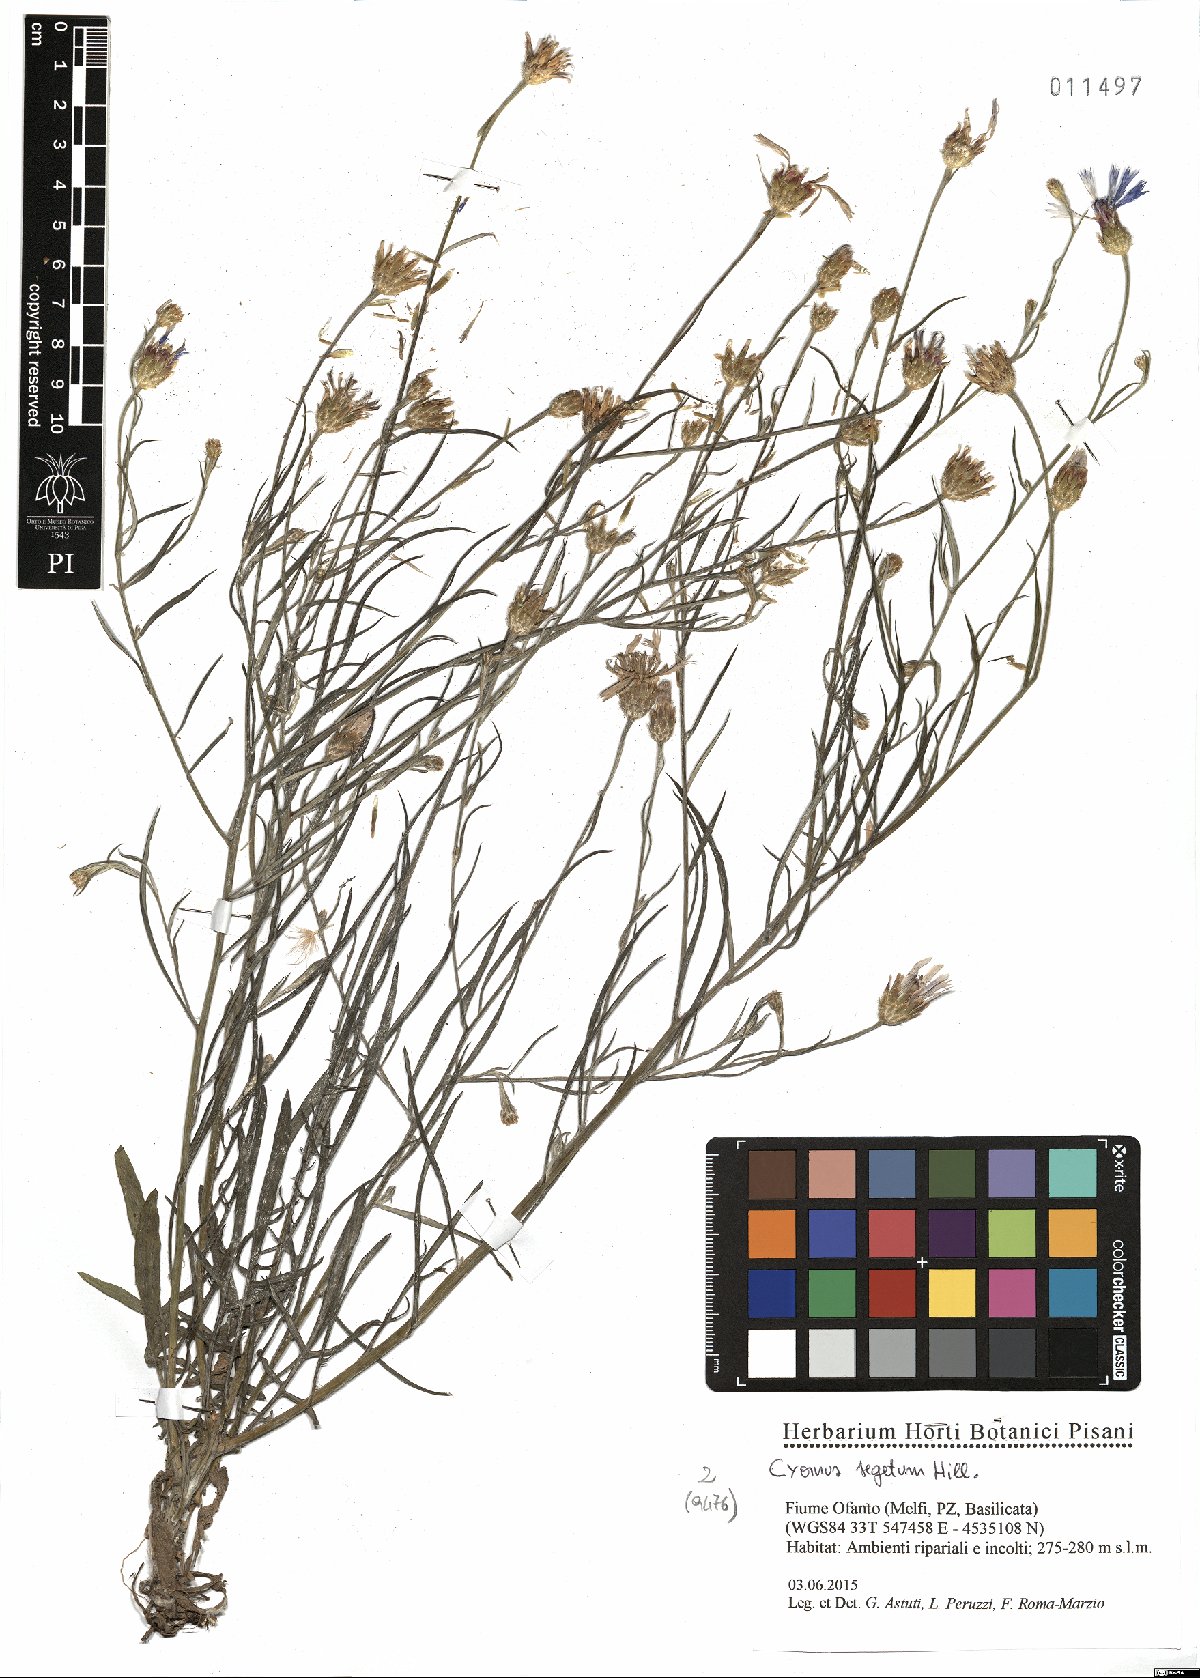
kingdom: Plantae
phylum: Tracheophyta
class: Magnoliopsida
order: Asterales
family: Asteraceae
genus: Centaurea
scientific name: Centaurea cyanus
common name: Cornflower
